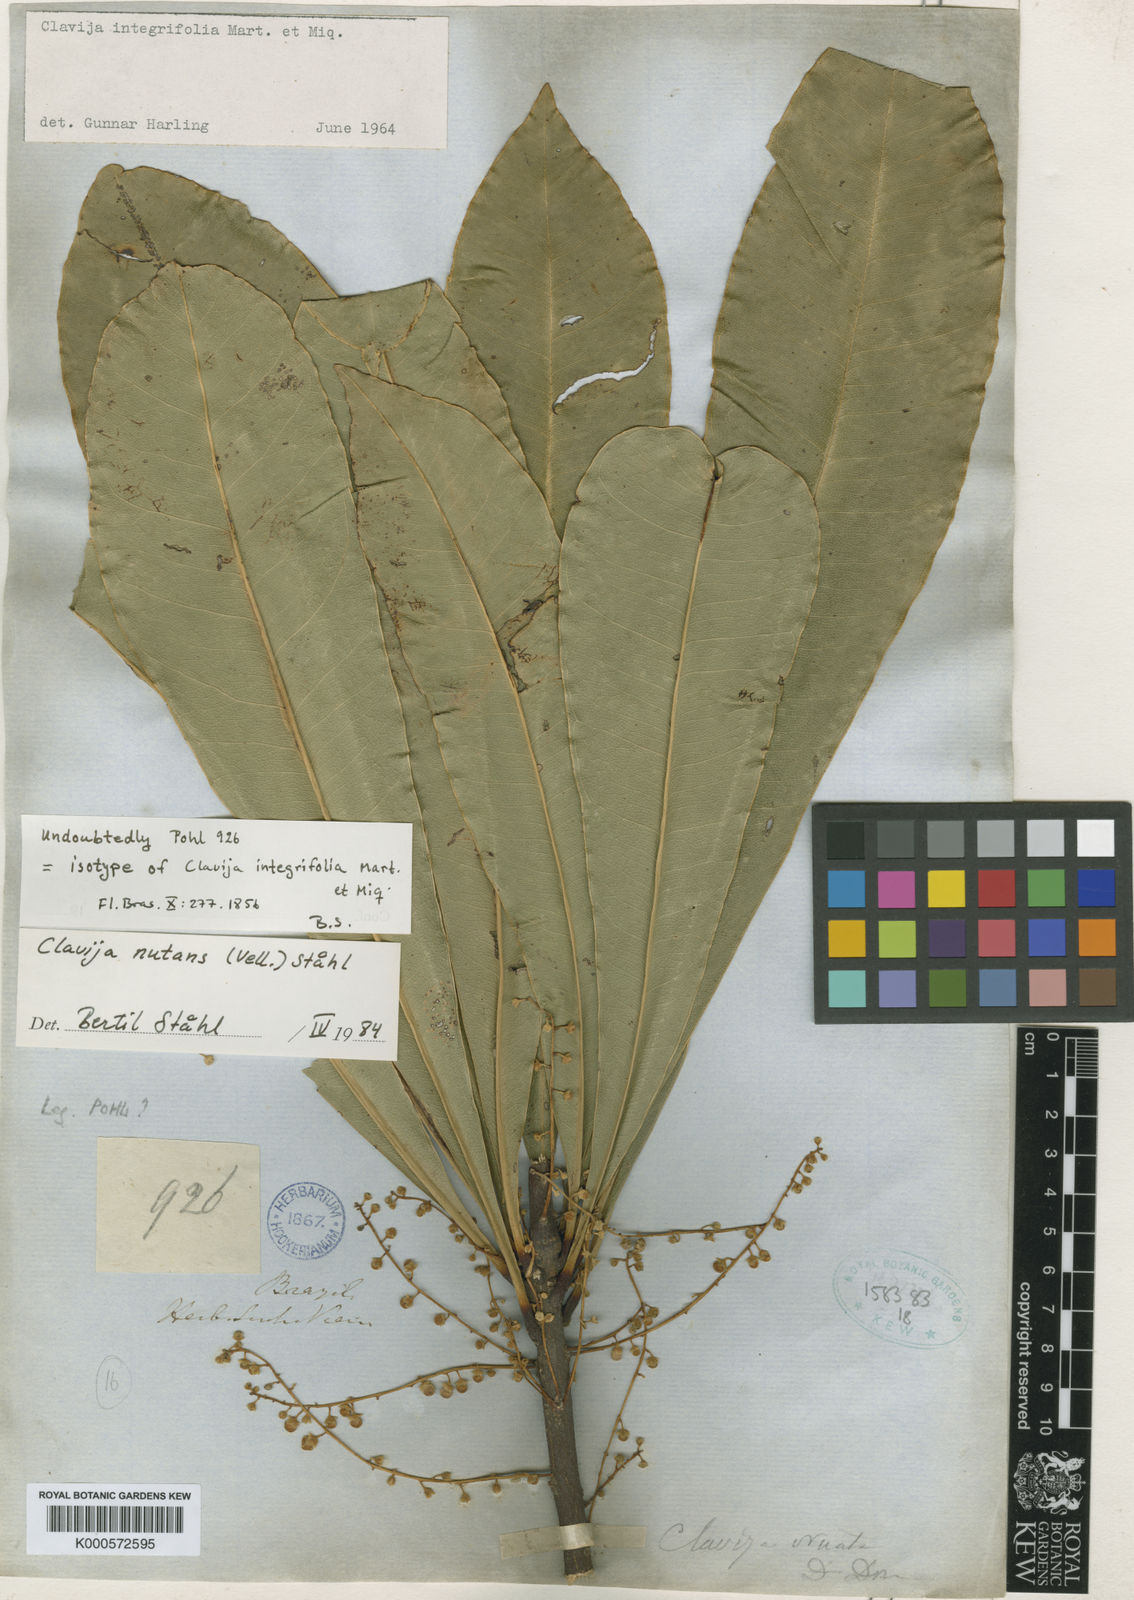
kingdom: Plantae
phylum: Tracheophyta
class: Magnoliopsida
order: Ericales
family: Primulaceae
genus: Clavija
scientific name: Clavija
